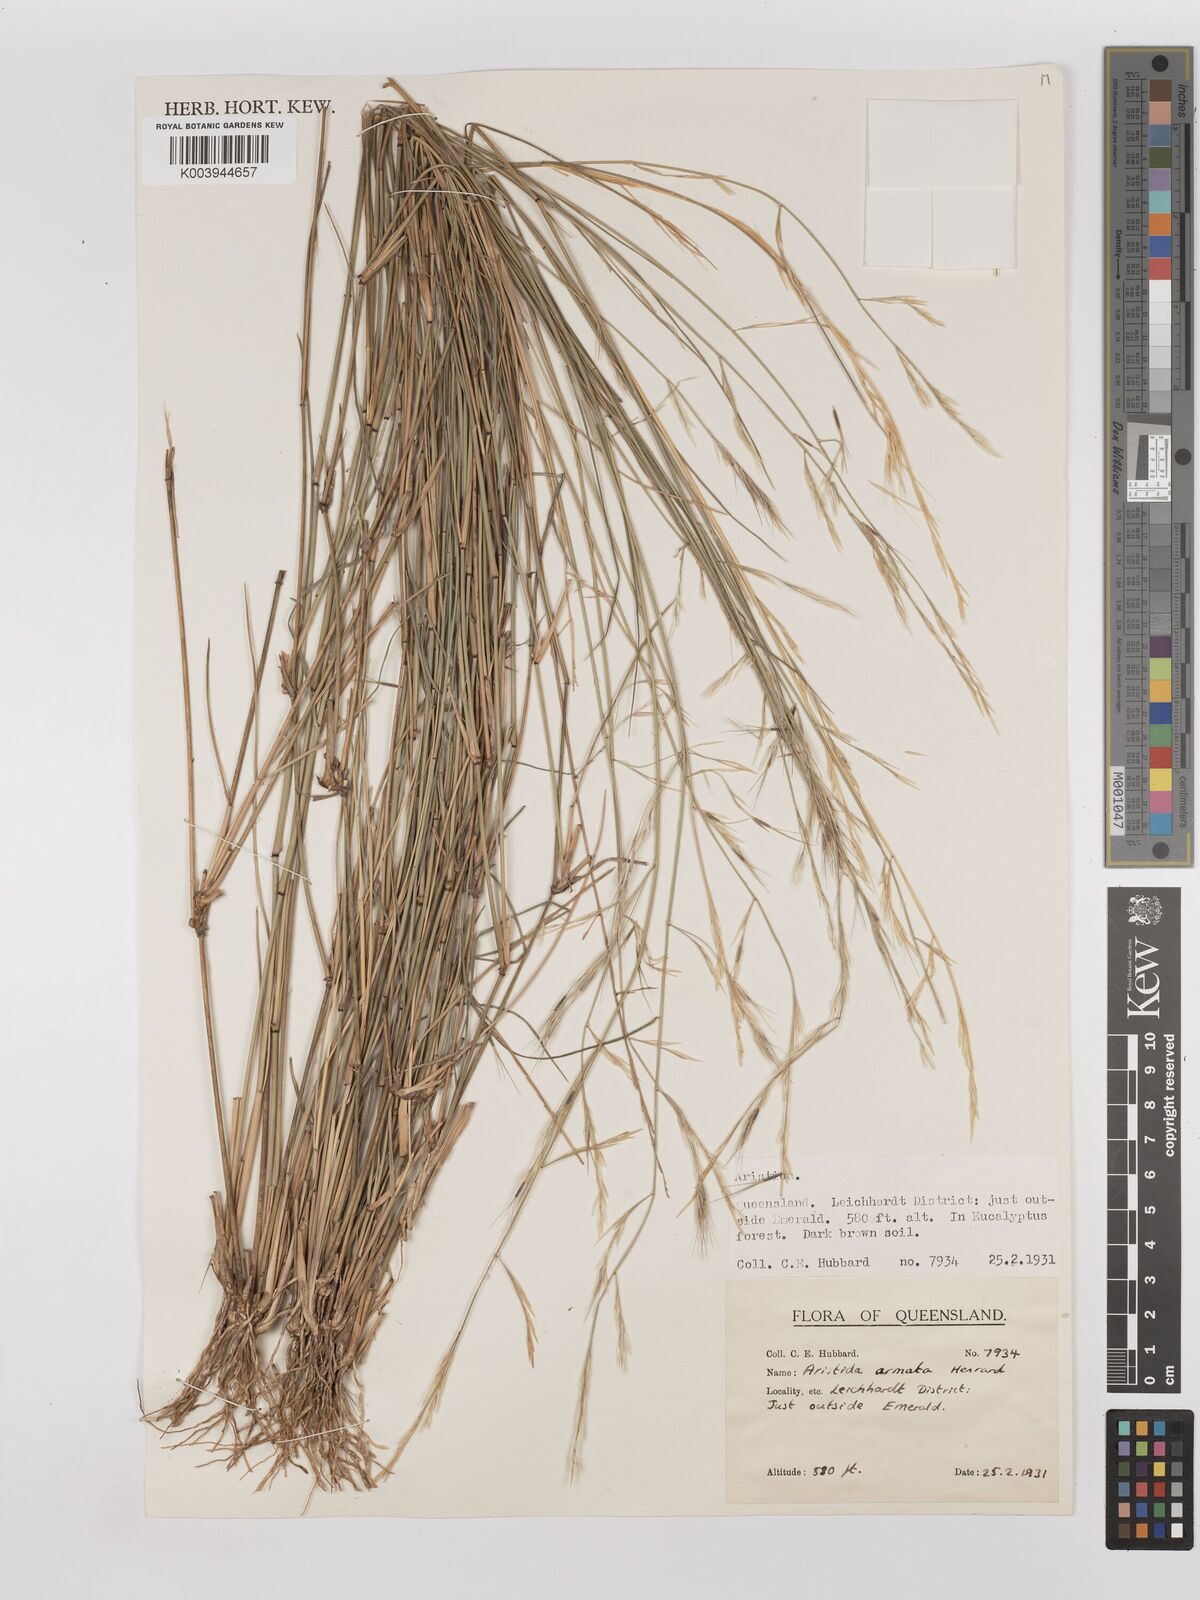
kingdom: Plantae
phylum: Tracheophyta
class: Liliopsida
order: Poales
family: Poaceae
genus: Aristida
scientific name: Aristida calycina
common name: Dark wire grass
